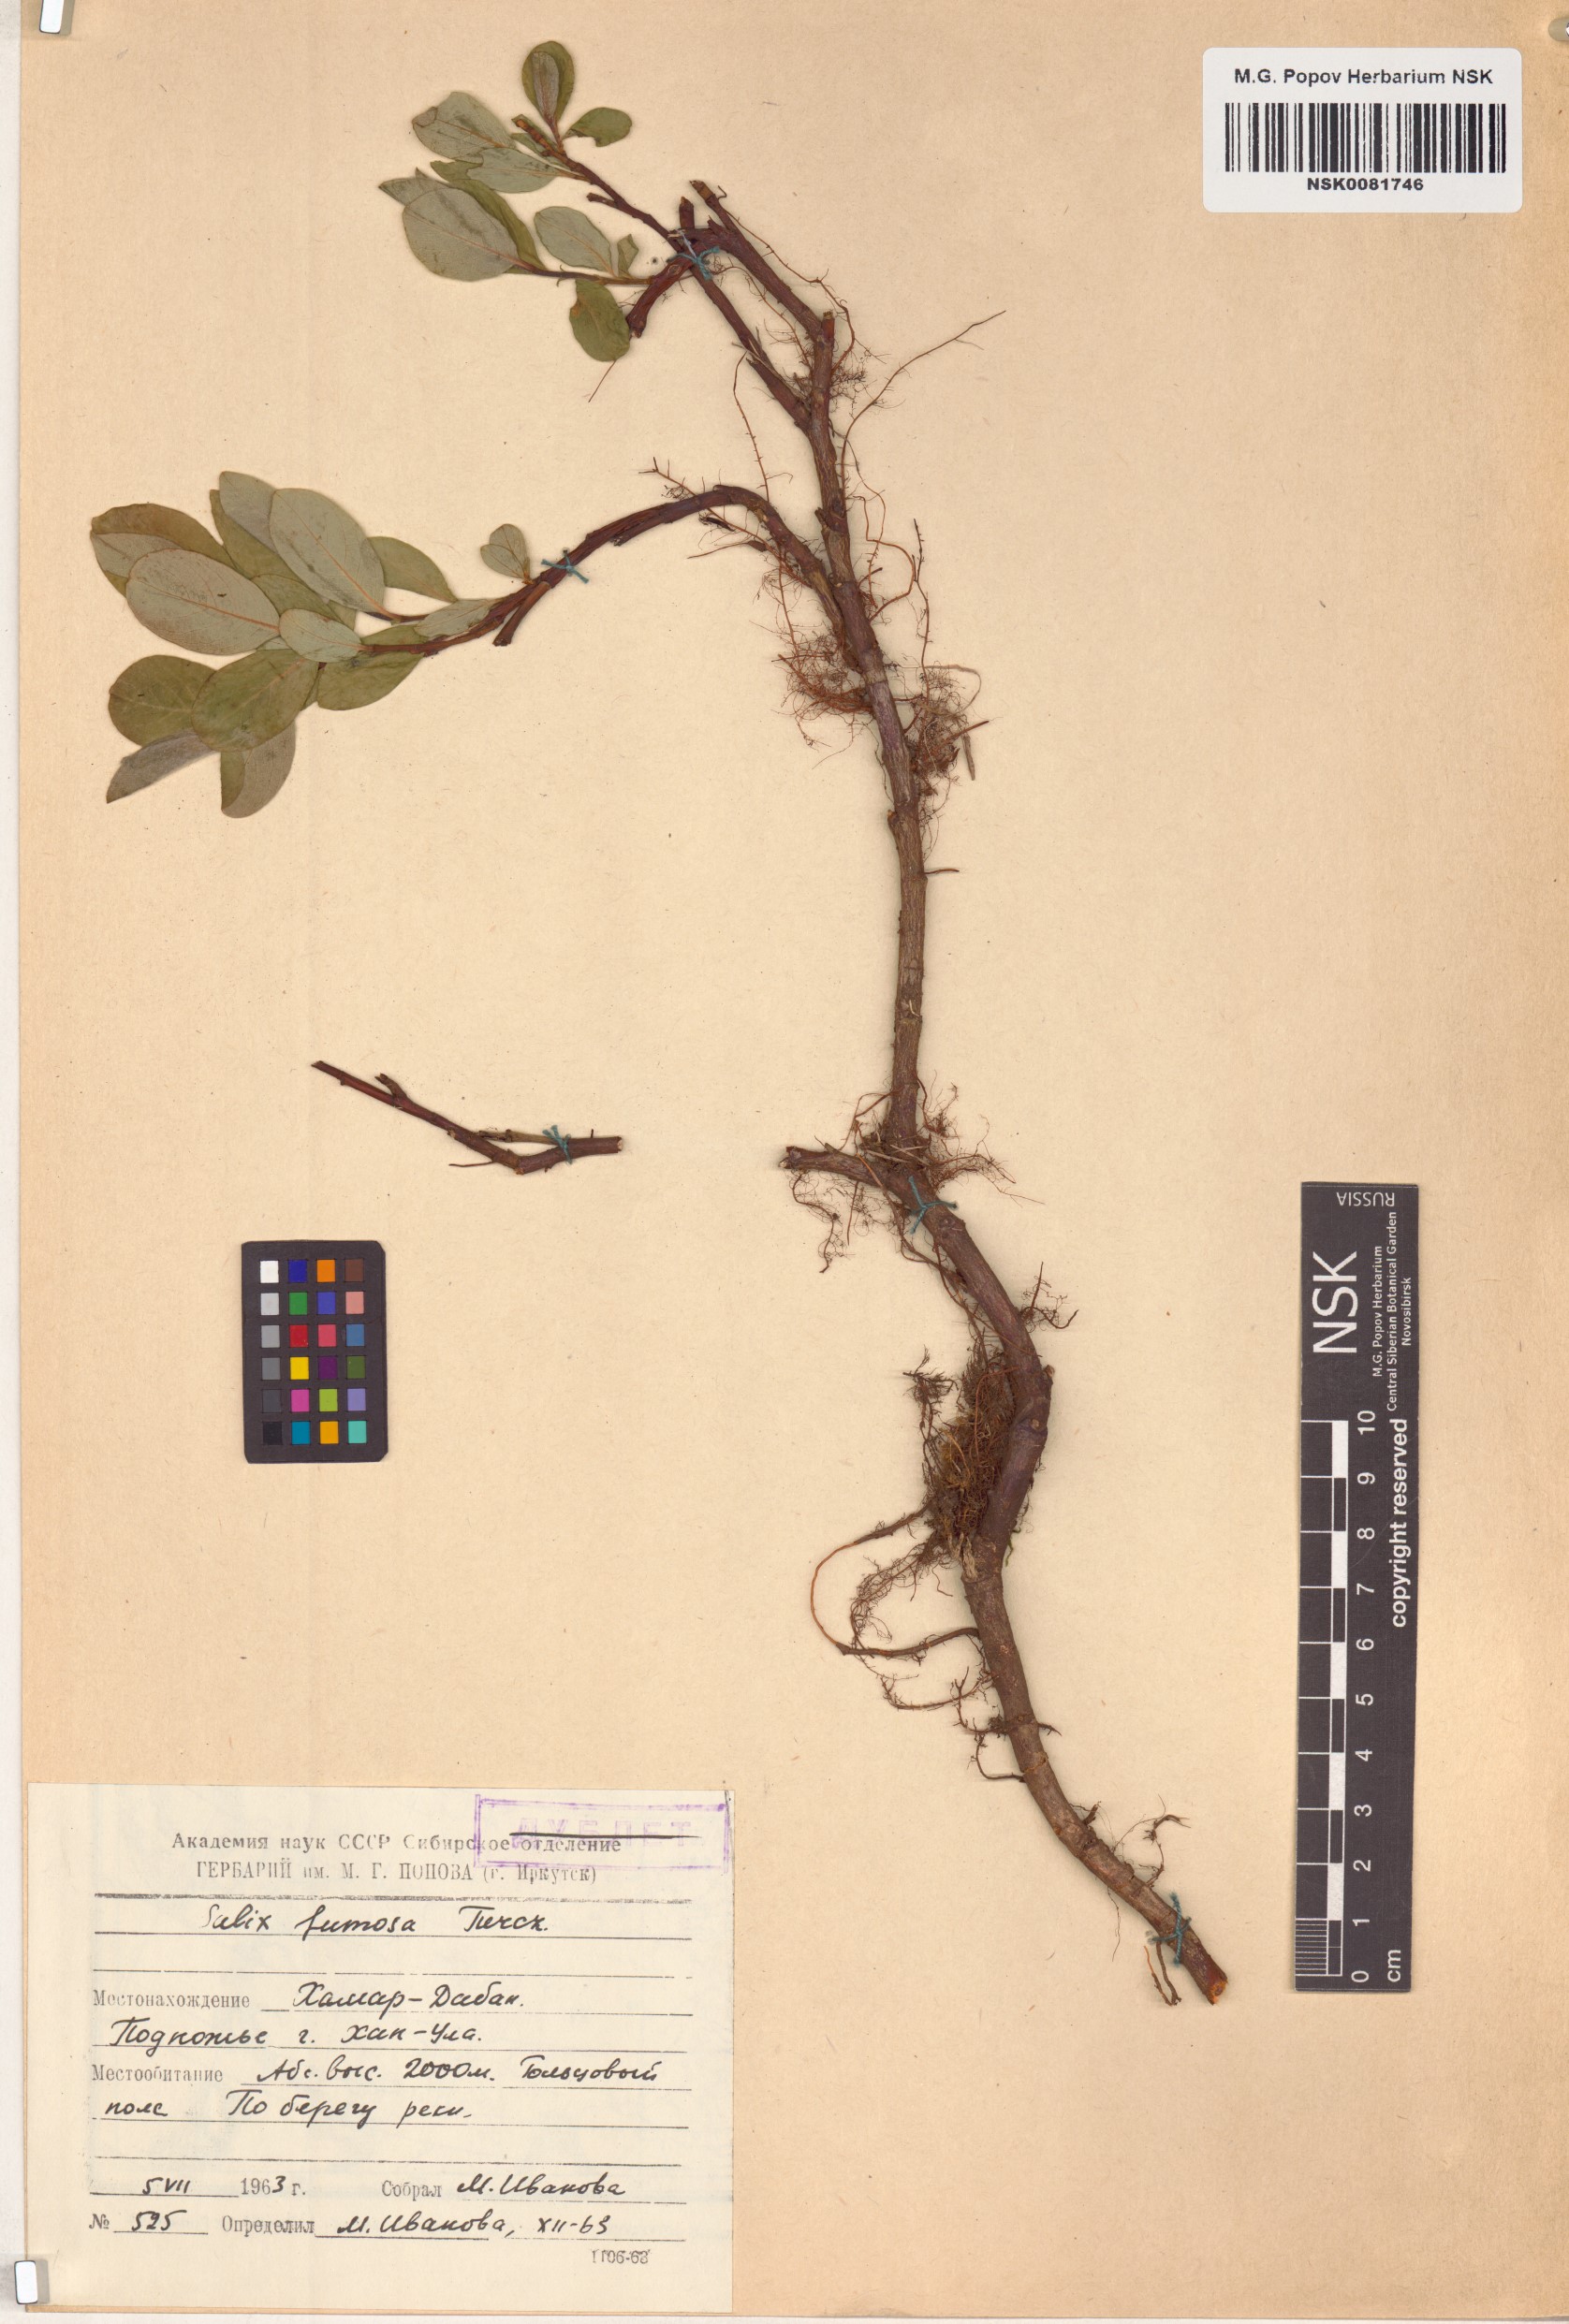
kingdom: Plantae
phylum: Tracheophyta
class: Magnoliopsida
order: Malpighiales
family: Salicaceae
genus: Salix
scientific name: Salix saxatilis
